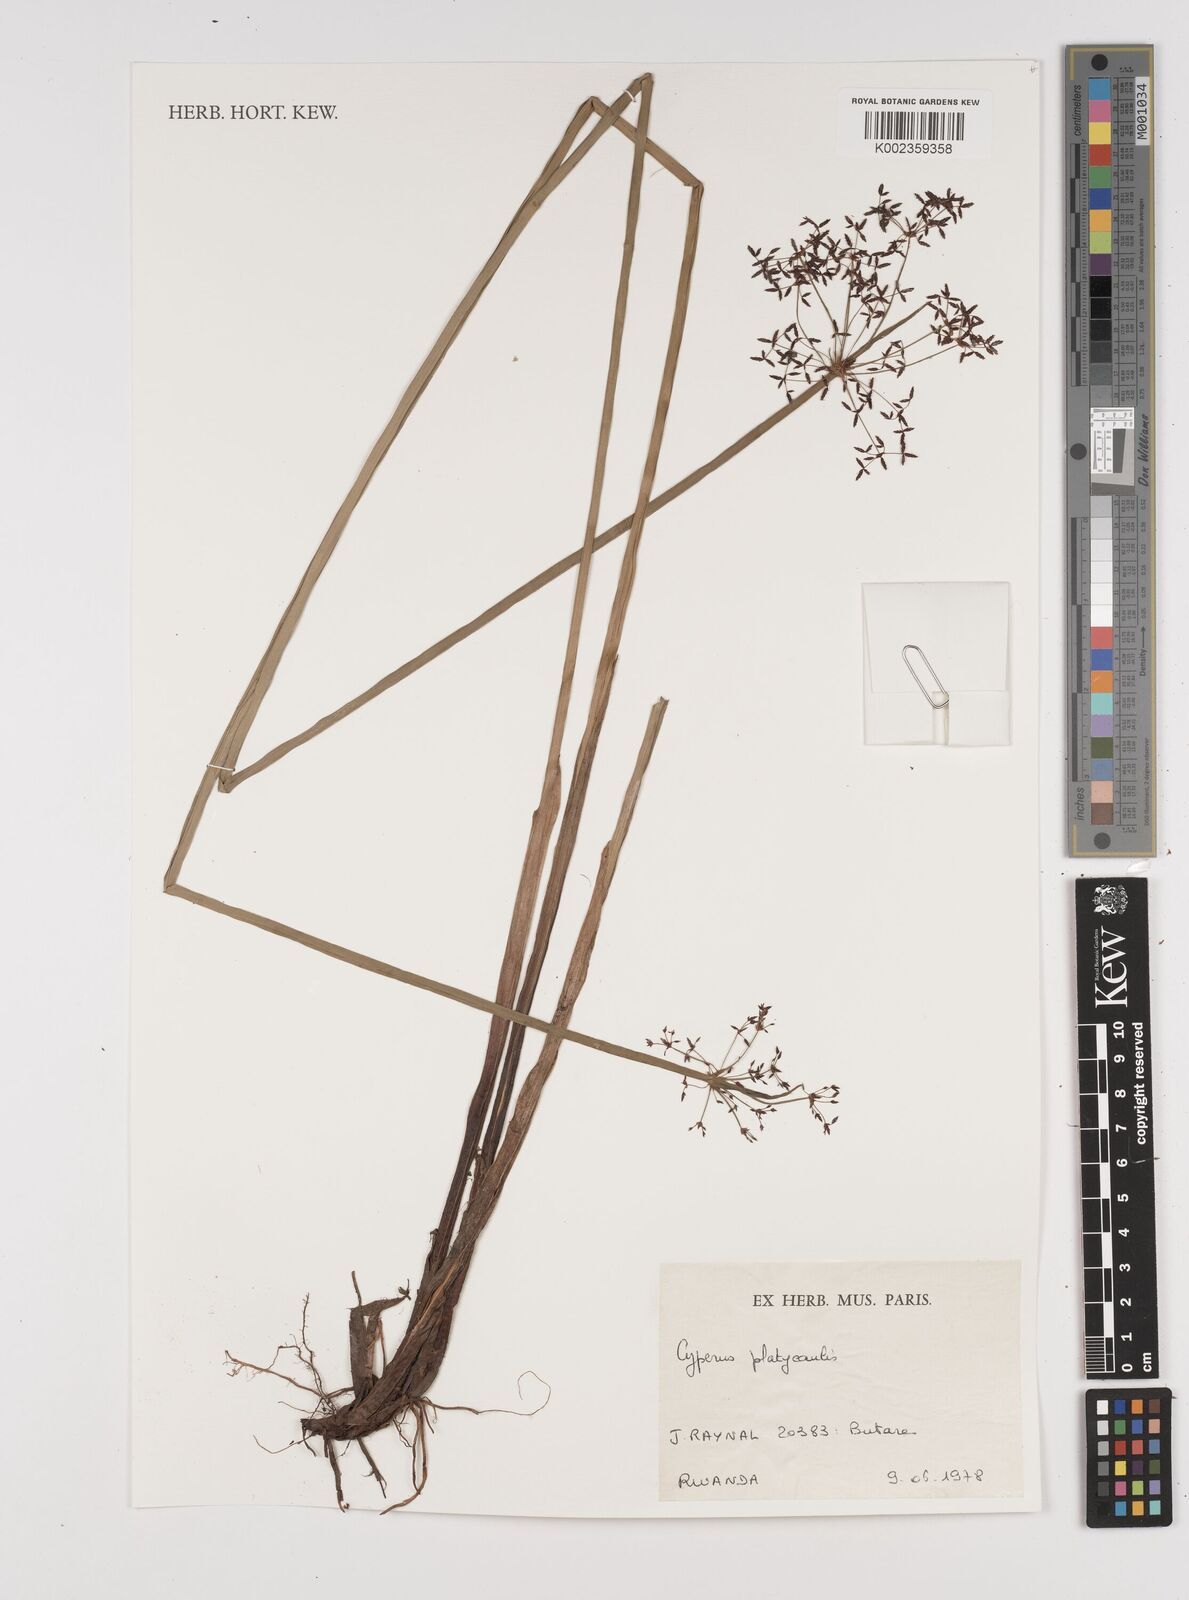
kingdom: Plantae
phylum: Tracheophyta
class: Liliopsida
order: Poales
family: Cyperaceae
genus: Cyperus
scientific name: Cyperus platycaulis
